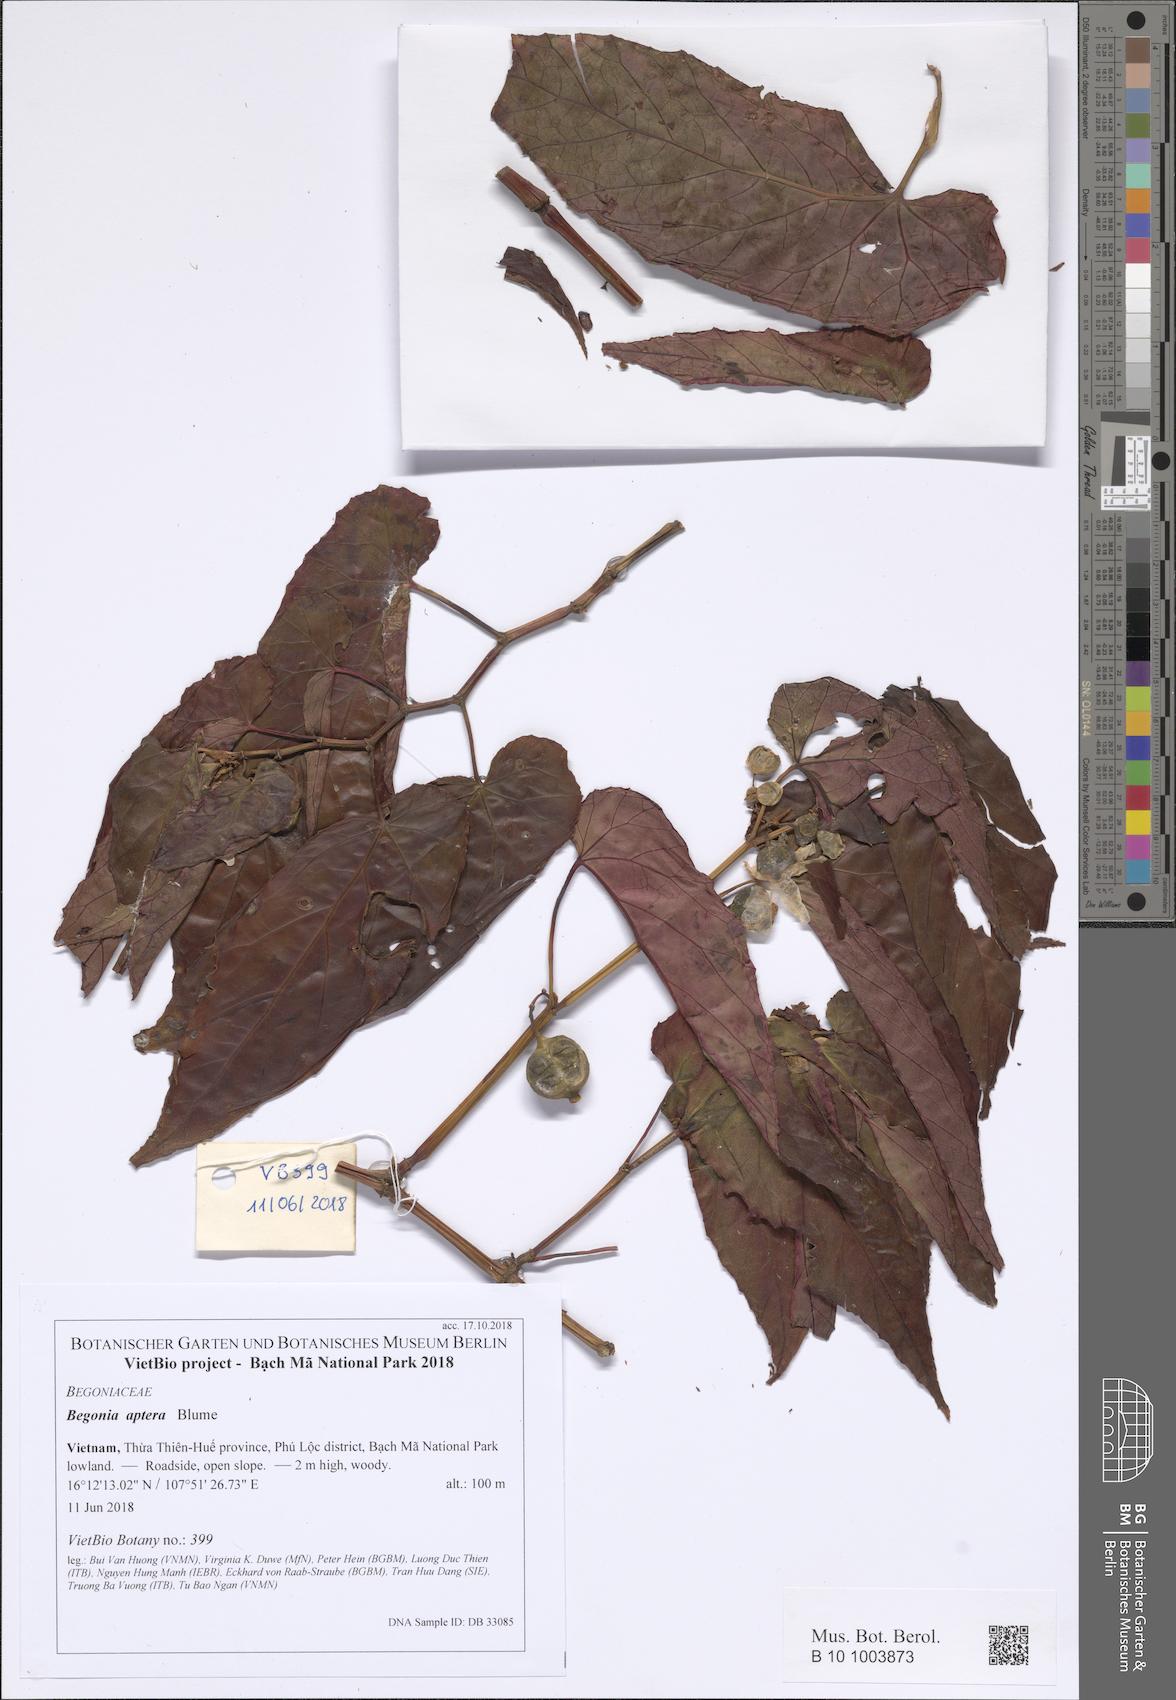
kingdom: Plantae
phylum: Tracheophyta
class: Magnoliopsida
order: Cucurbitales
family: Begoniaceae
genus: Begonia
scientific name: Begonia aptera
